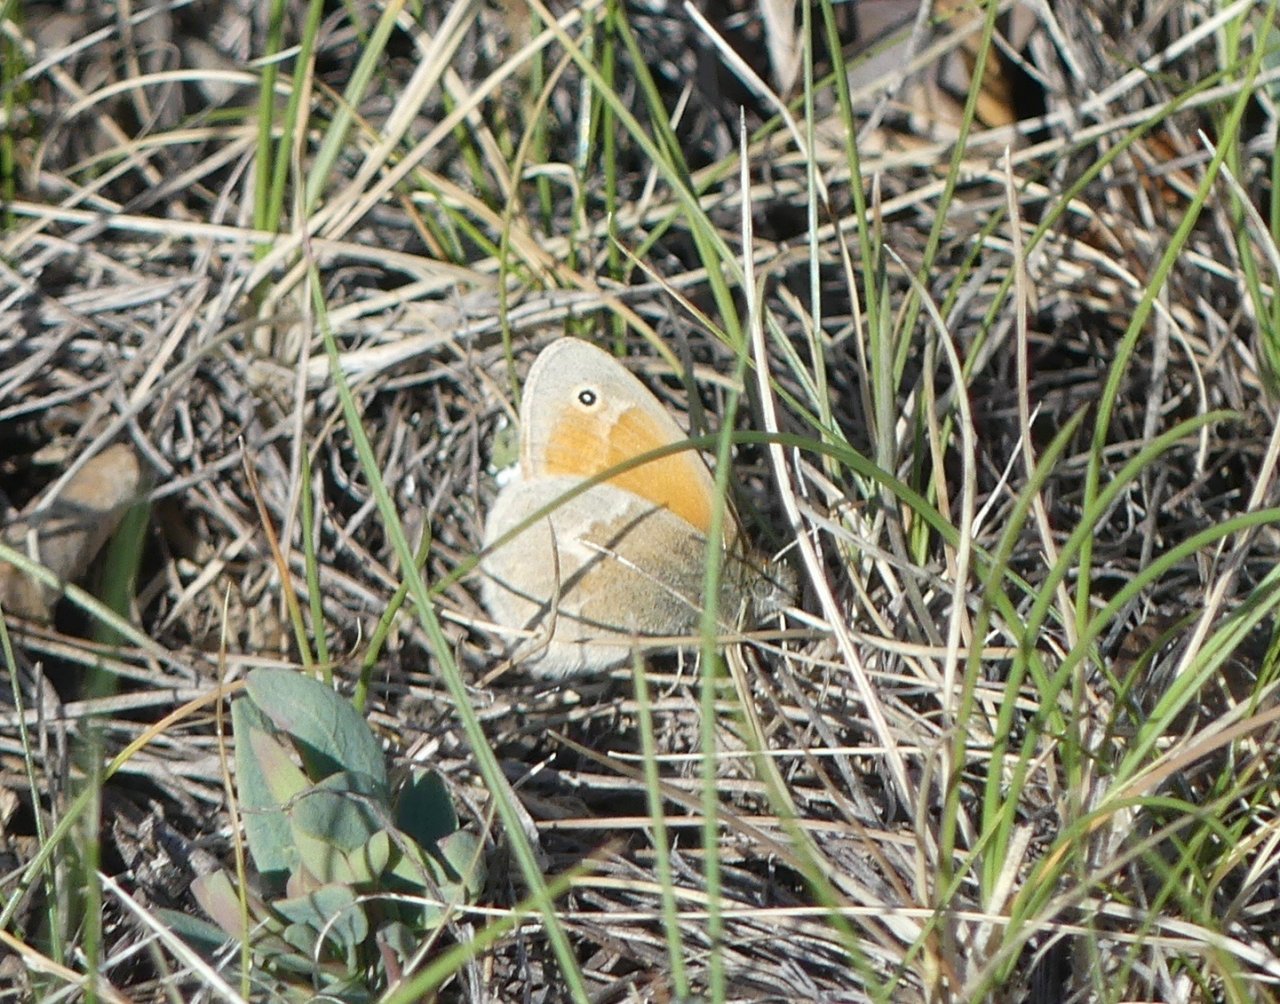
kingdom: Animalia
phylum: Arthropoda
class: Insecta
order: Lepidoptera
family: Nymphalidae
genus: Coenonympha
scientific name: Coenonympha tullia
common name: Large Heath
